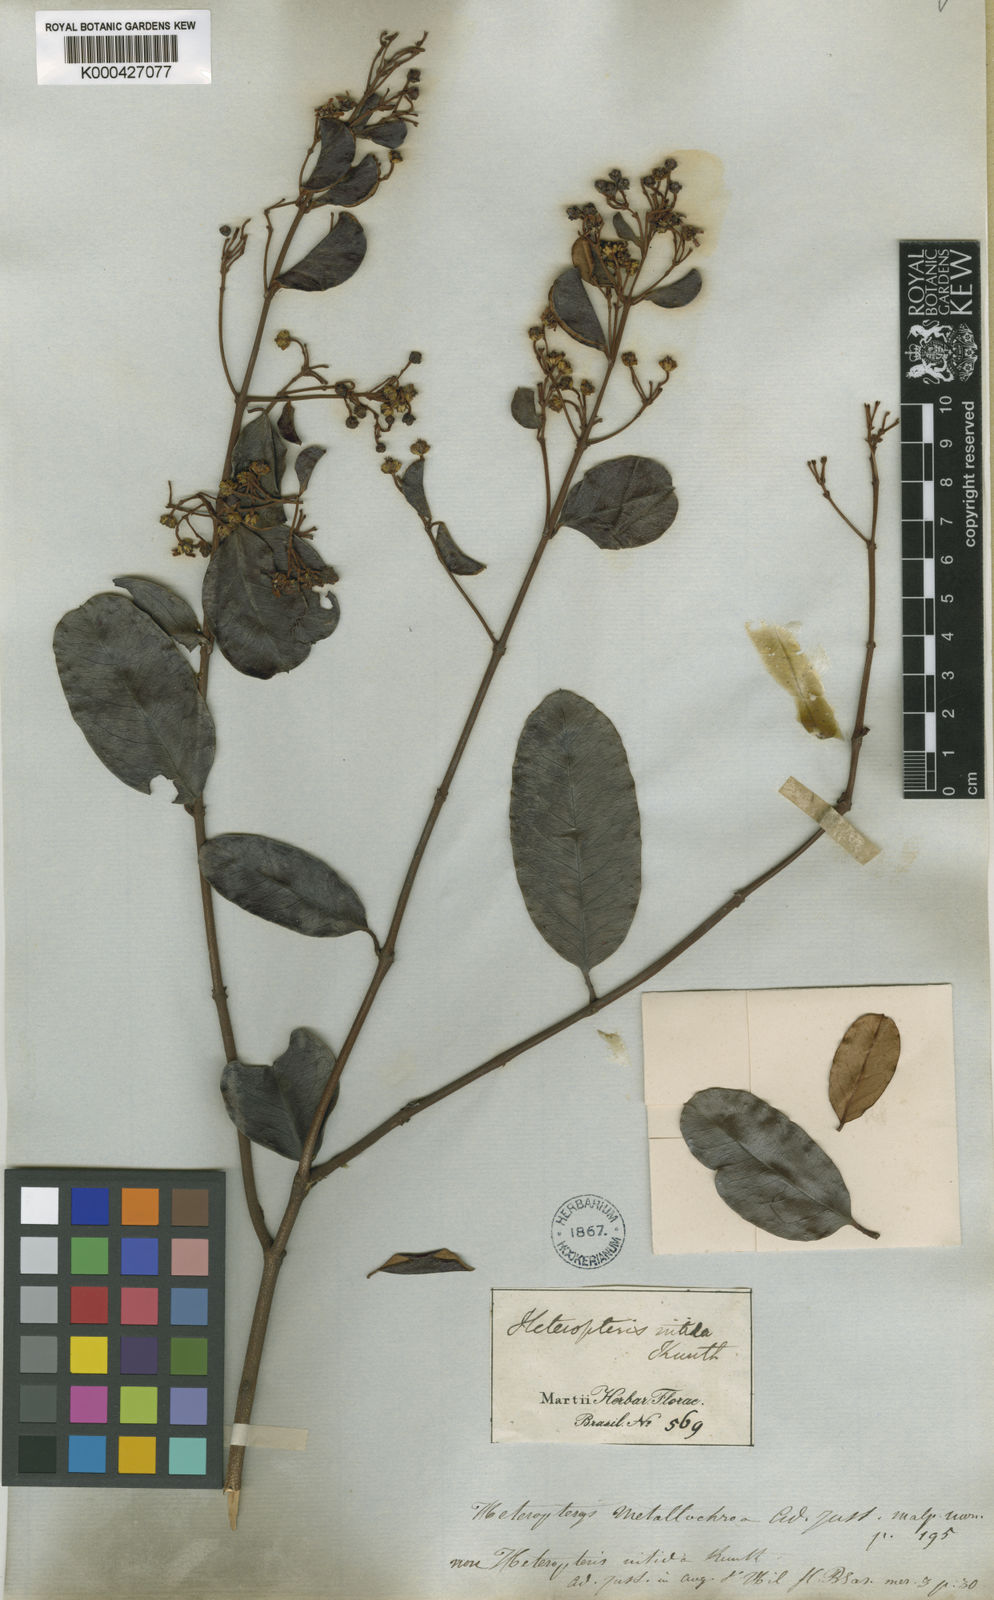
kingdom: Plantae
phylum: Tracheophyta
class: Magnoliopsida
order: Malpighiales
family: Malpighiaceae
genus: Heteropterys
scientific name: Heteropterys aenea
